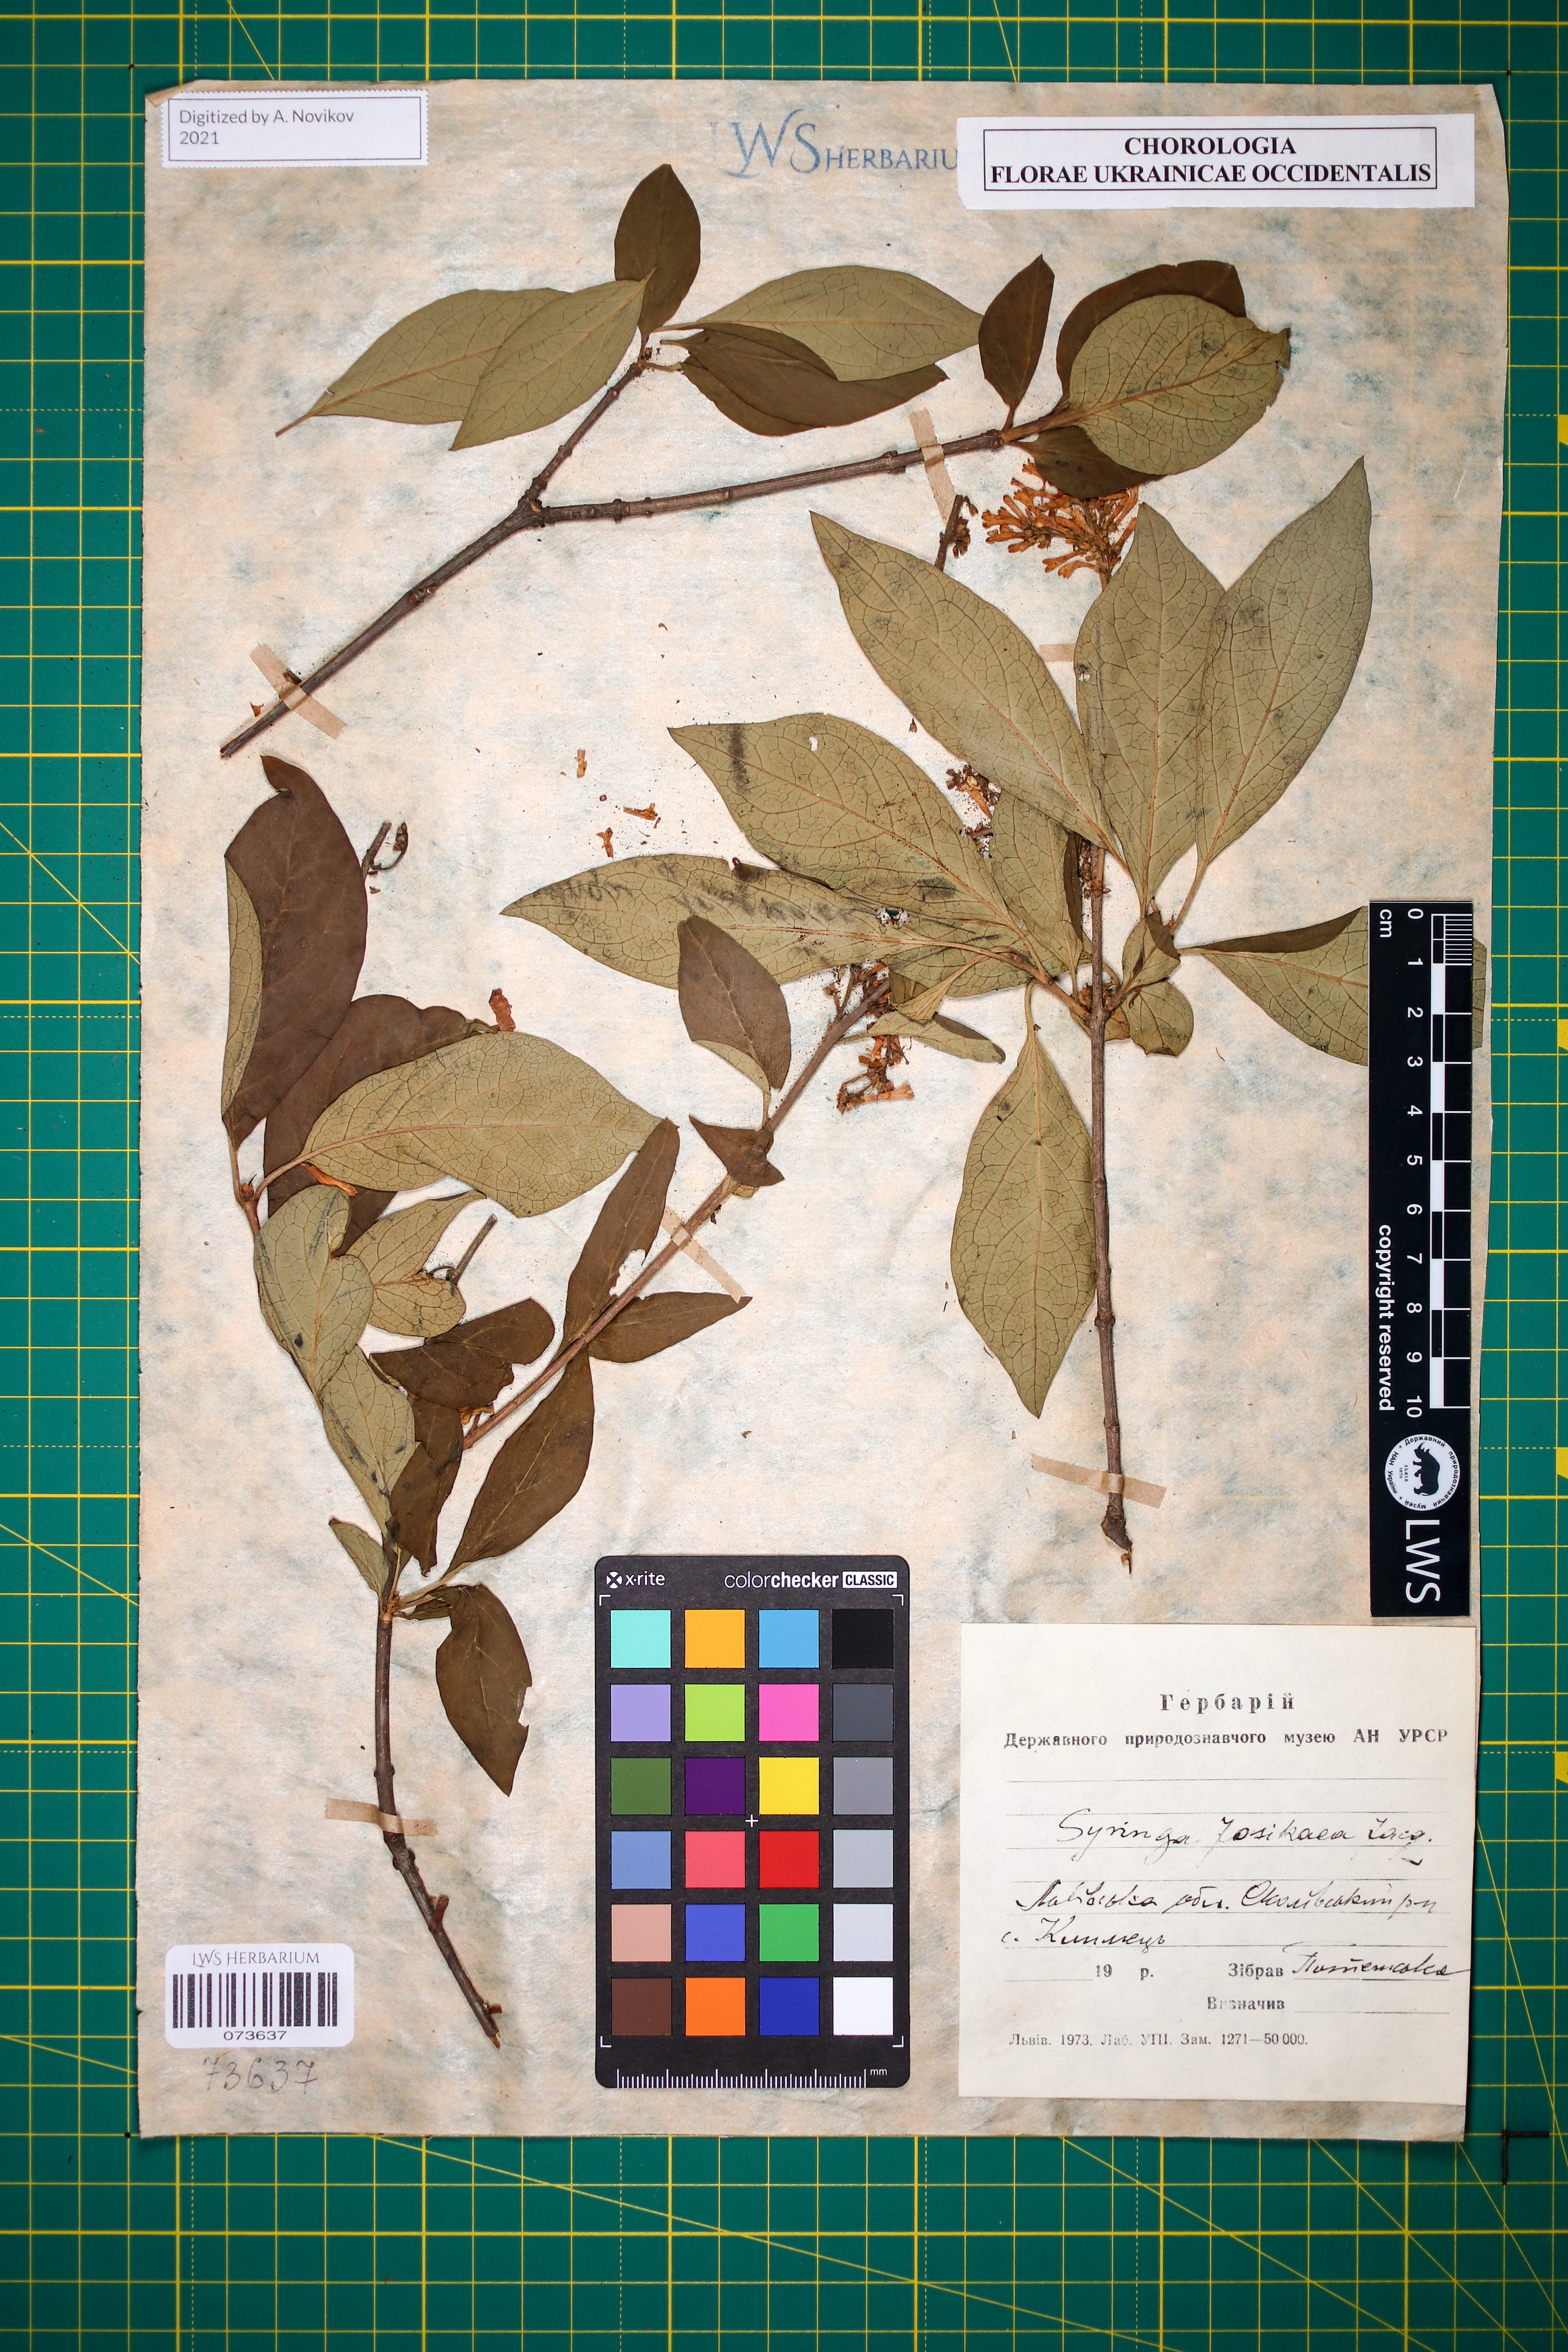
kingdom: Plantae
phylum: Tracheophyta
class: Magnoliopsida
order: Lamiales
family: Oleaceae
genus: Syringa
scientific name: Syringa josikaea
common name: Hungarian lilac
